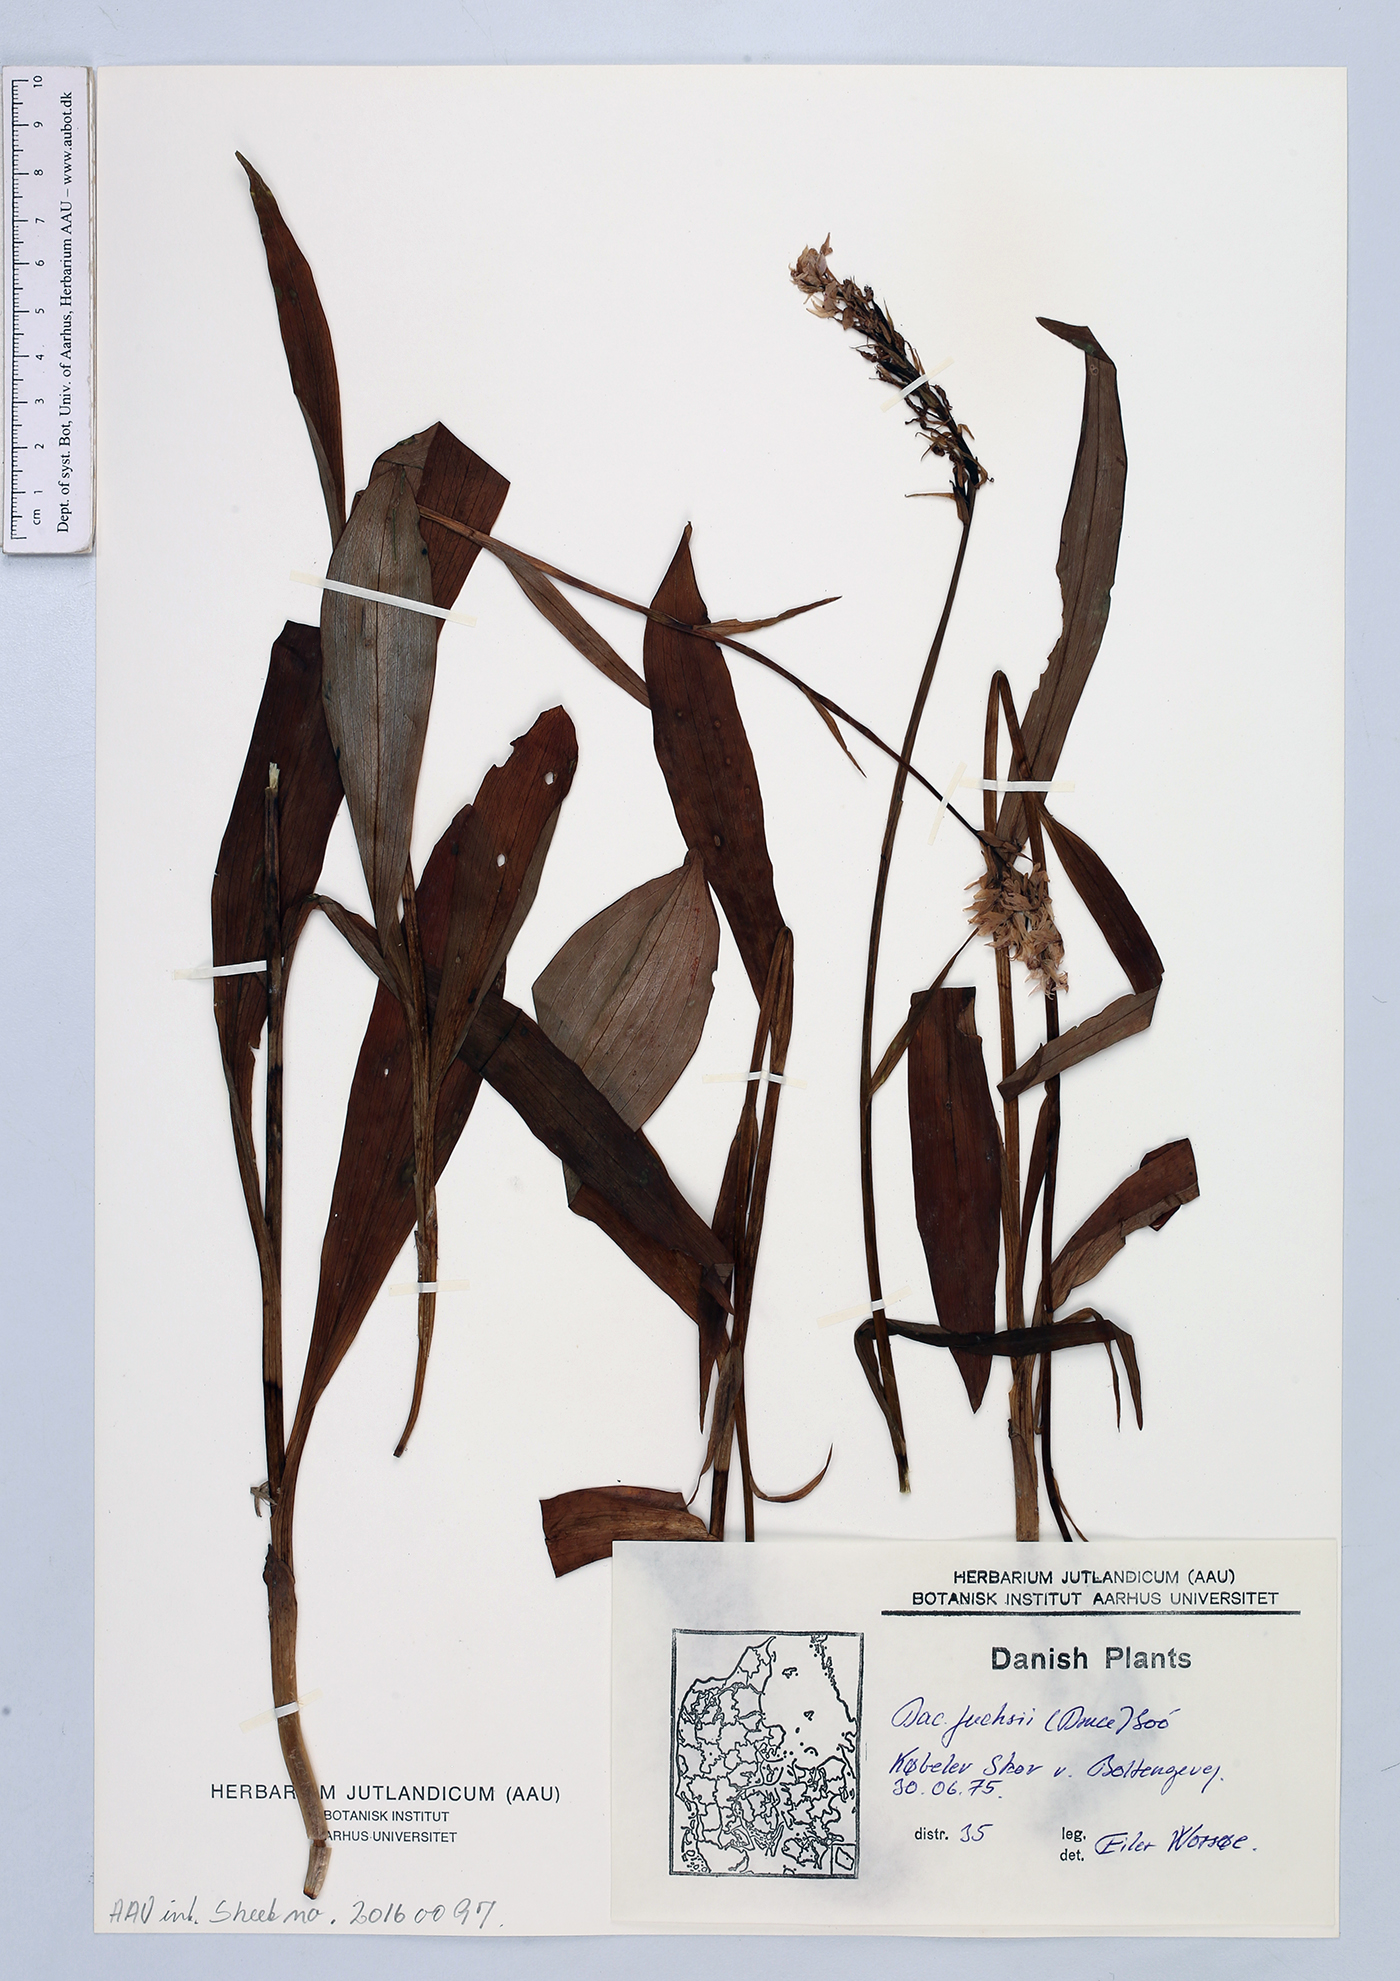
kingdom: Plantae
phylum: Tracheophyta
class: Liliopsida
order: Asparagales
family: Orchidaceae
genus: Dactylorhiza
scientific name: Dactylorhiza maculata
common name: Heath spotted-orchid
